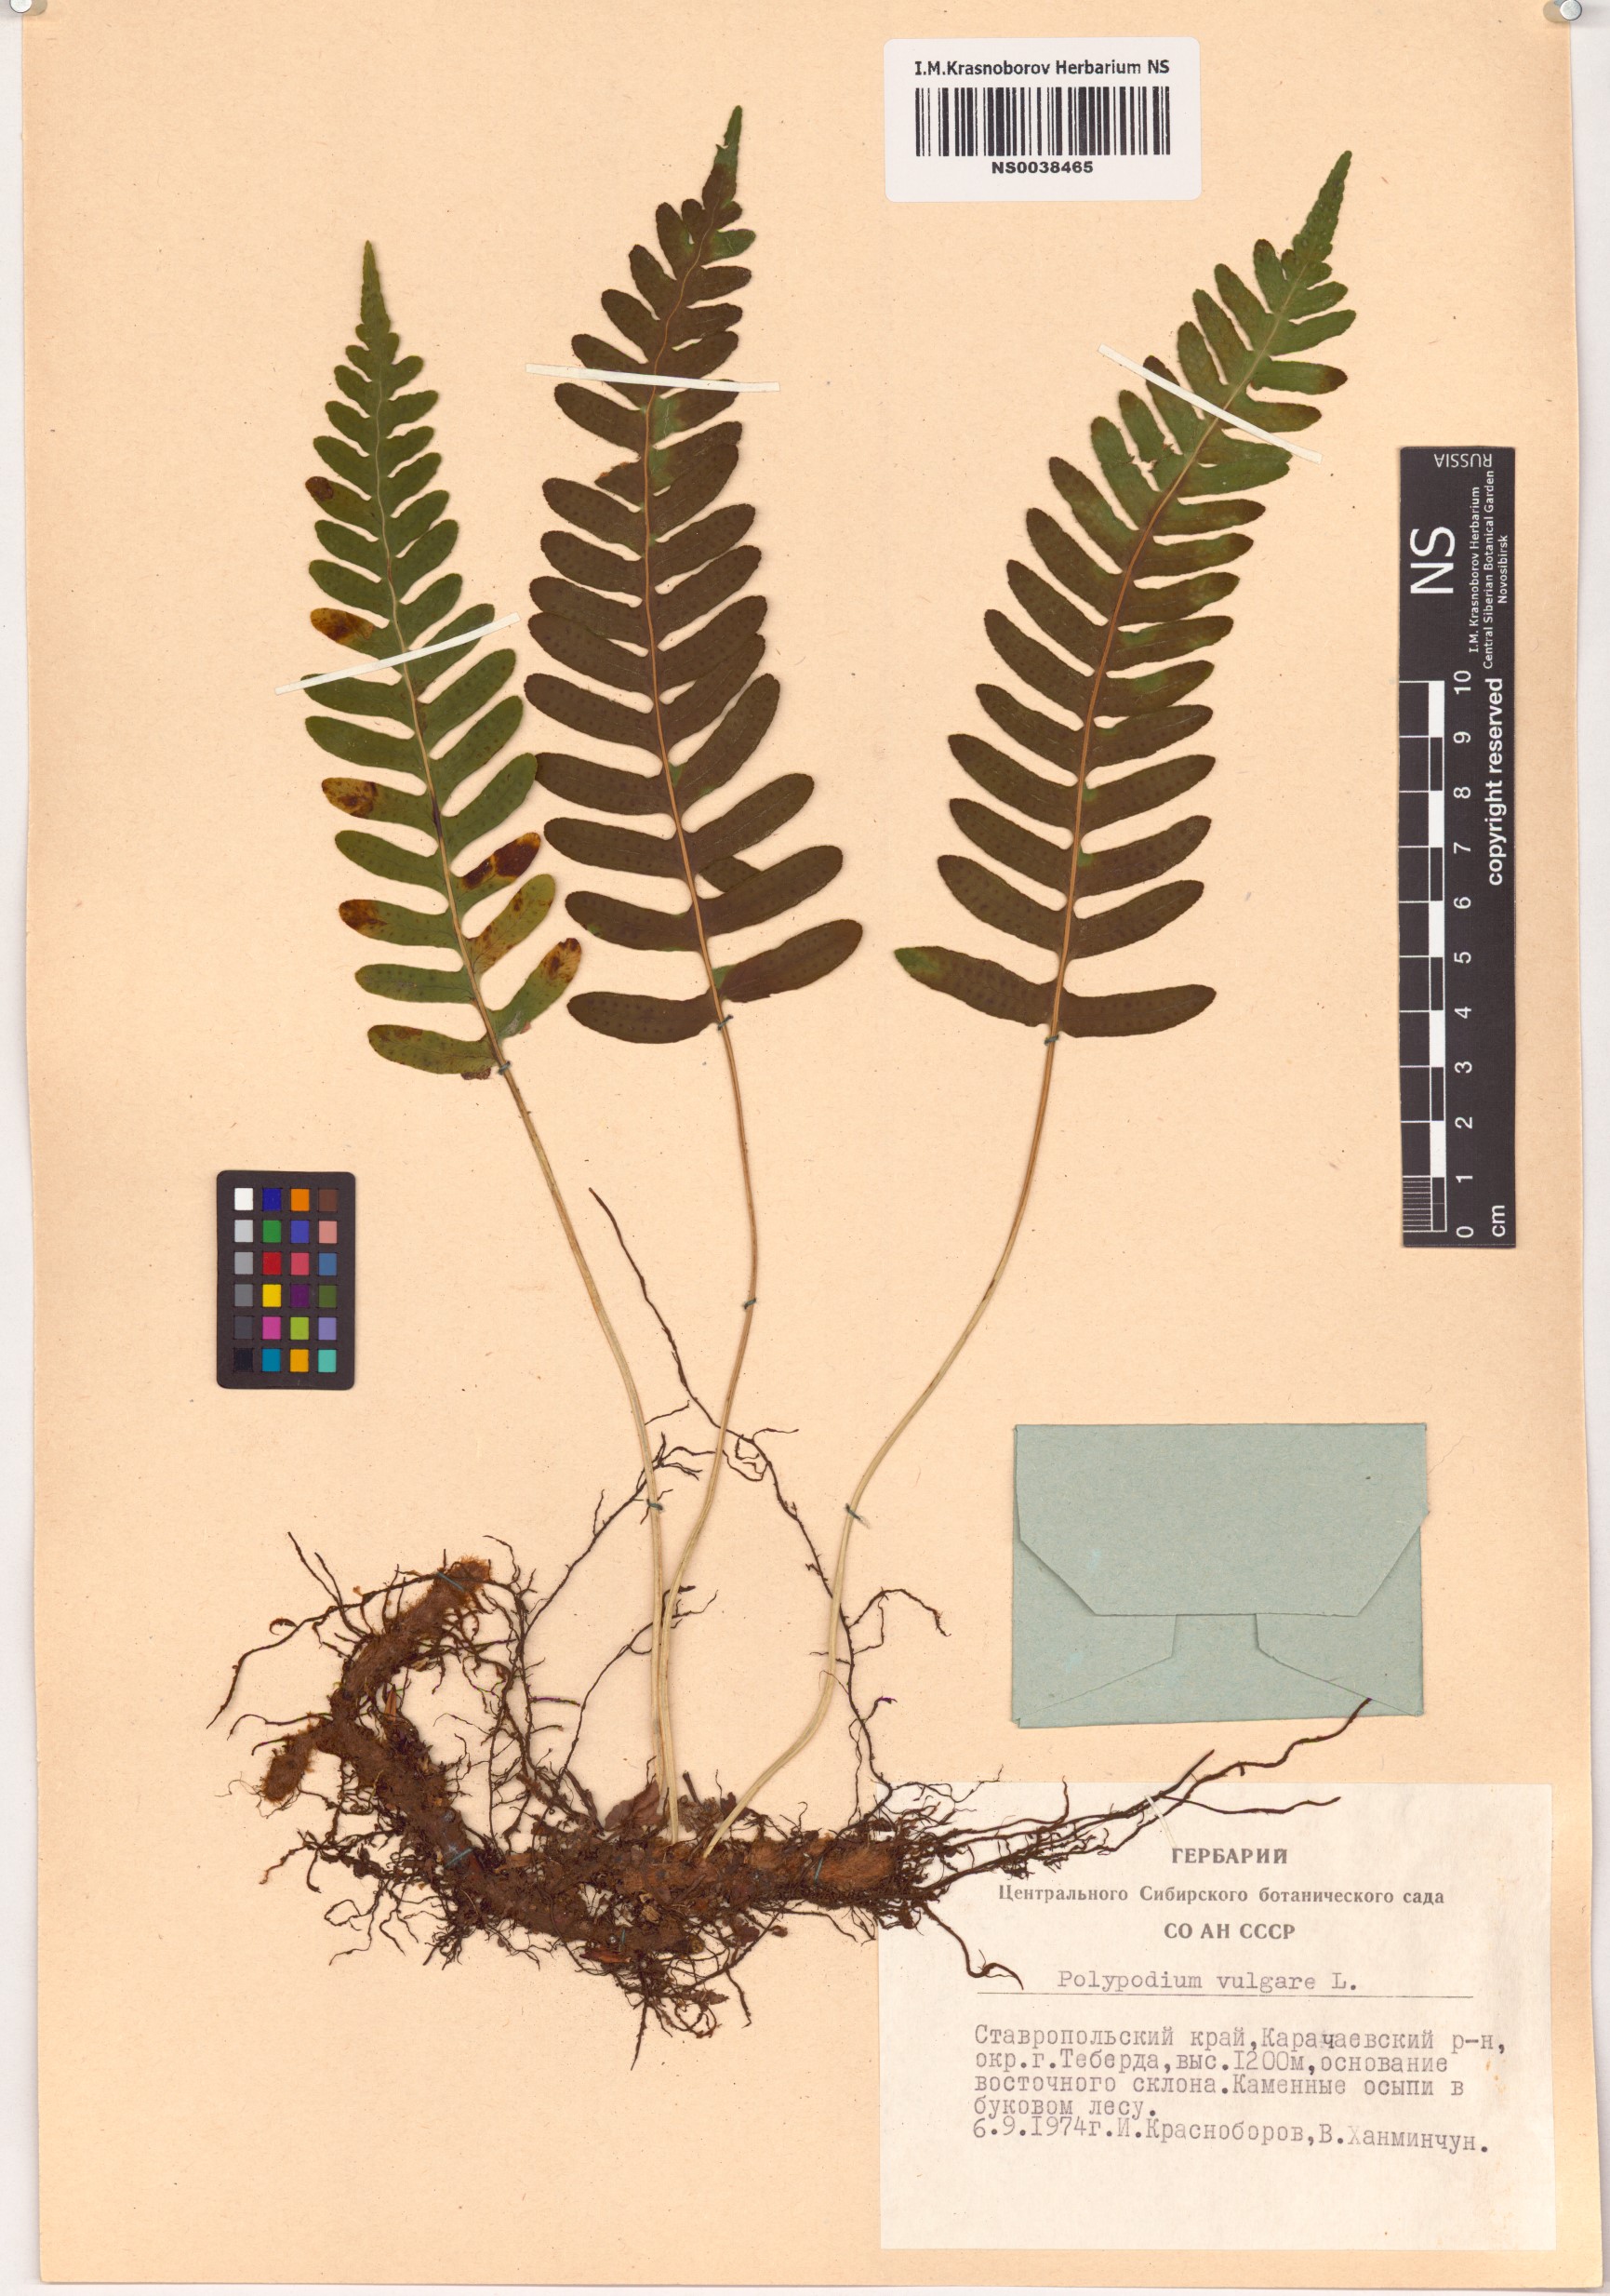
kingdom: Plantae
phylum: Tracheophyta
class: Polypodiopsida
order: Polypodiales
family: Polypodiaceae
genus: Polypodium
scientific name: Polypodium vulgare
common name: Common polypody
